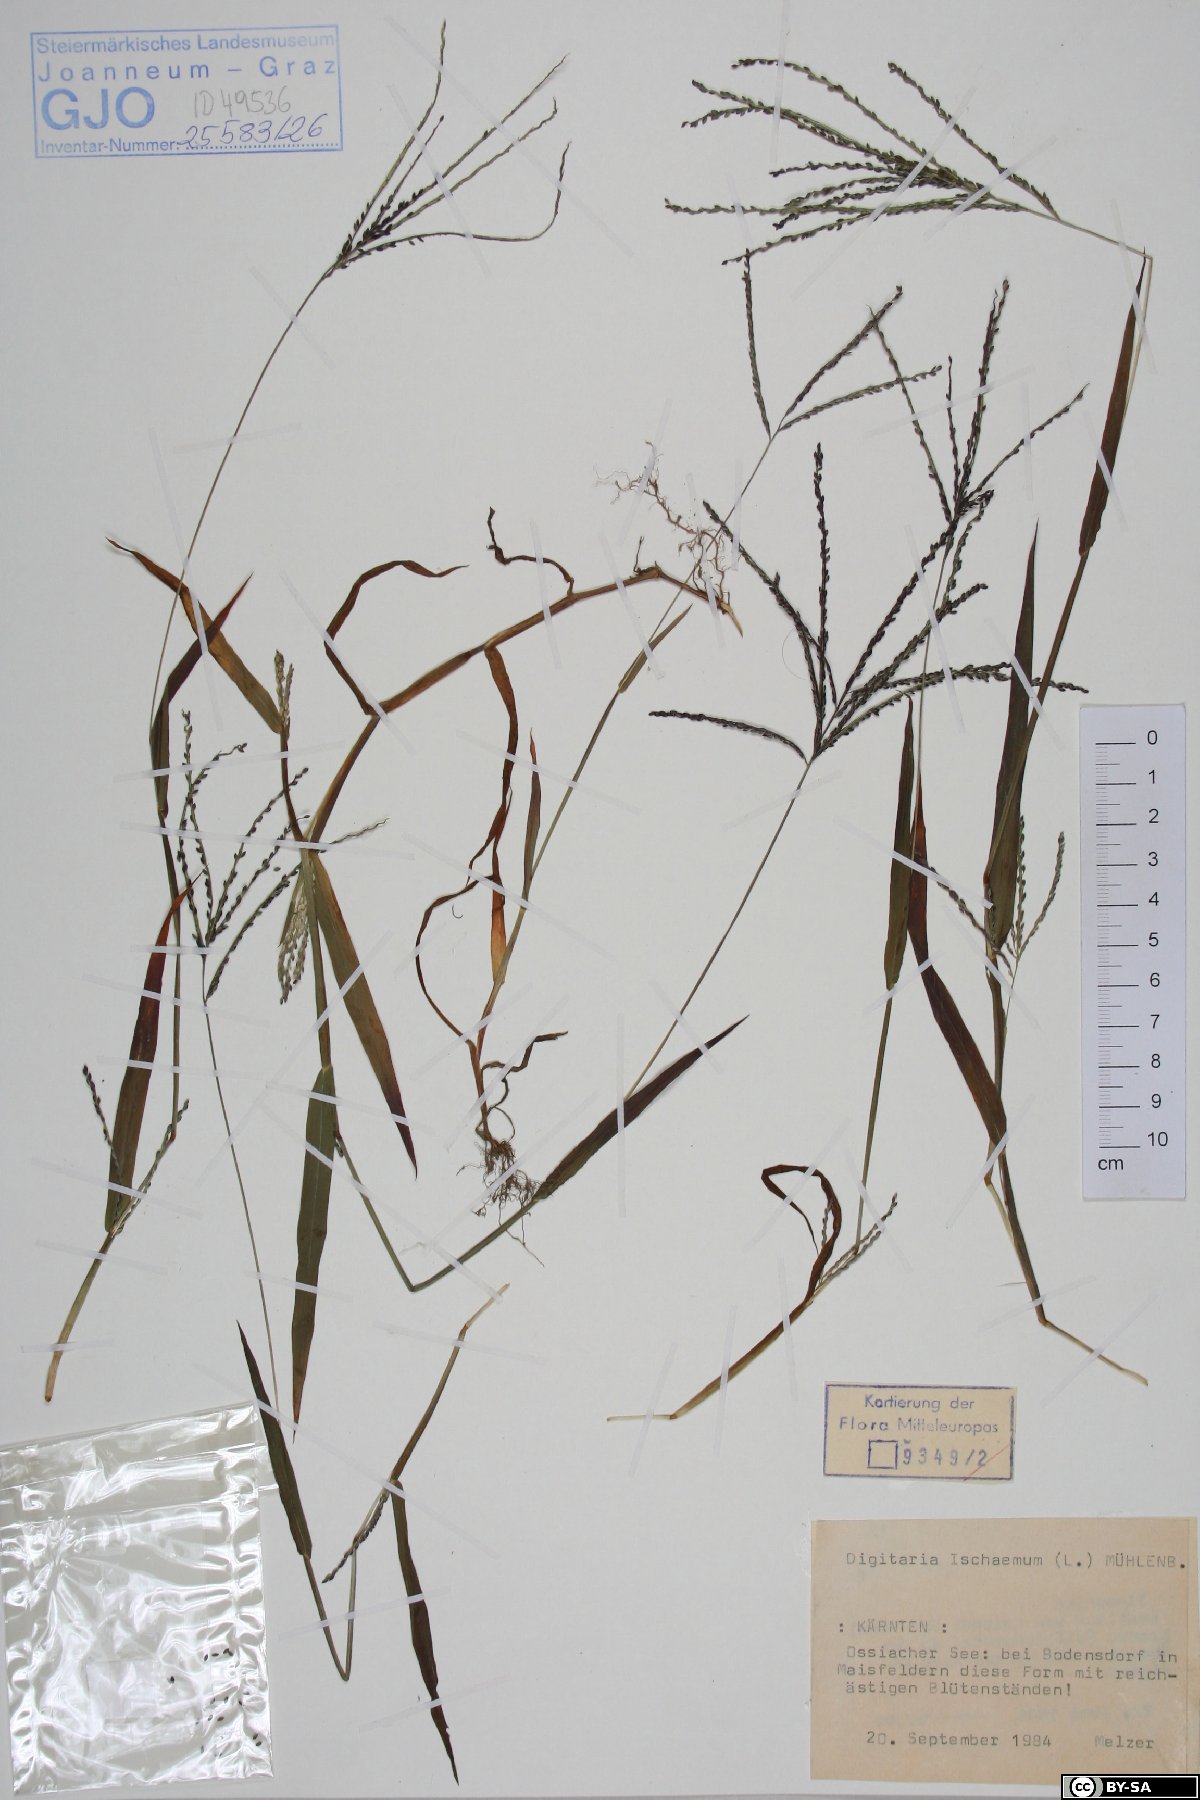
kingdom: Plantae
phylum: Tracheophyta
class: Liliopsida
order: Poales
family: Poaceae
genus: Digitaria
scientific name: Digitaria ischaemum
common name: Smooth crabgrass
